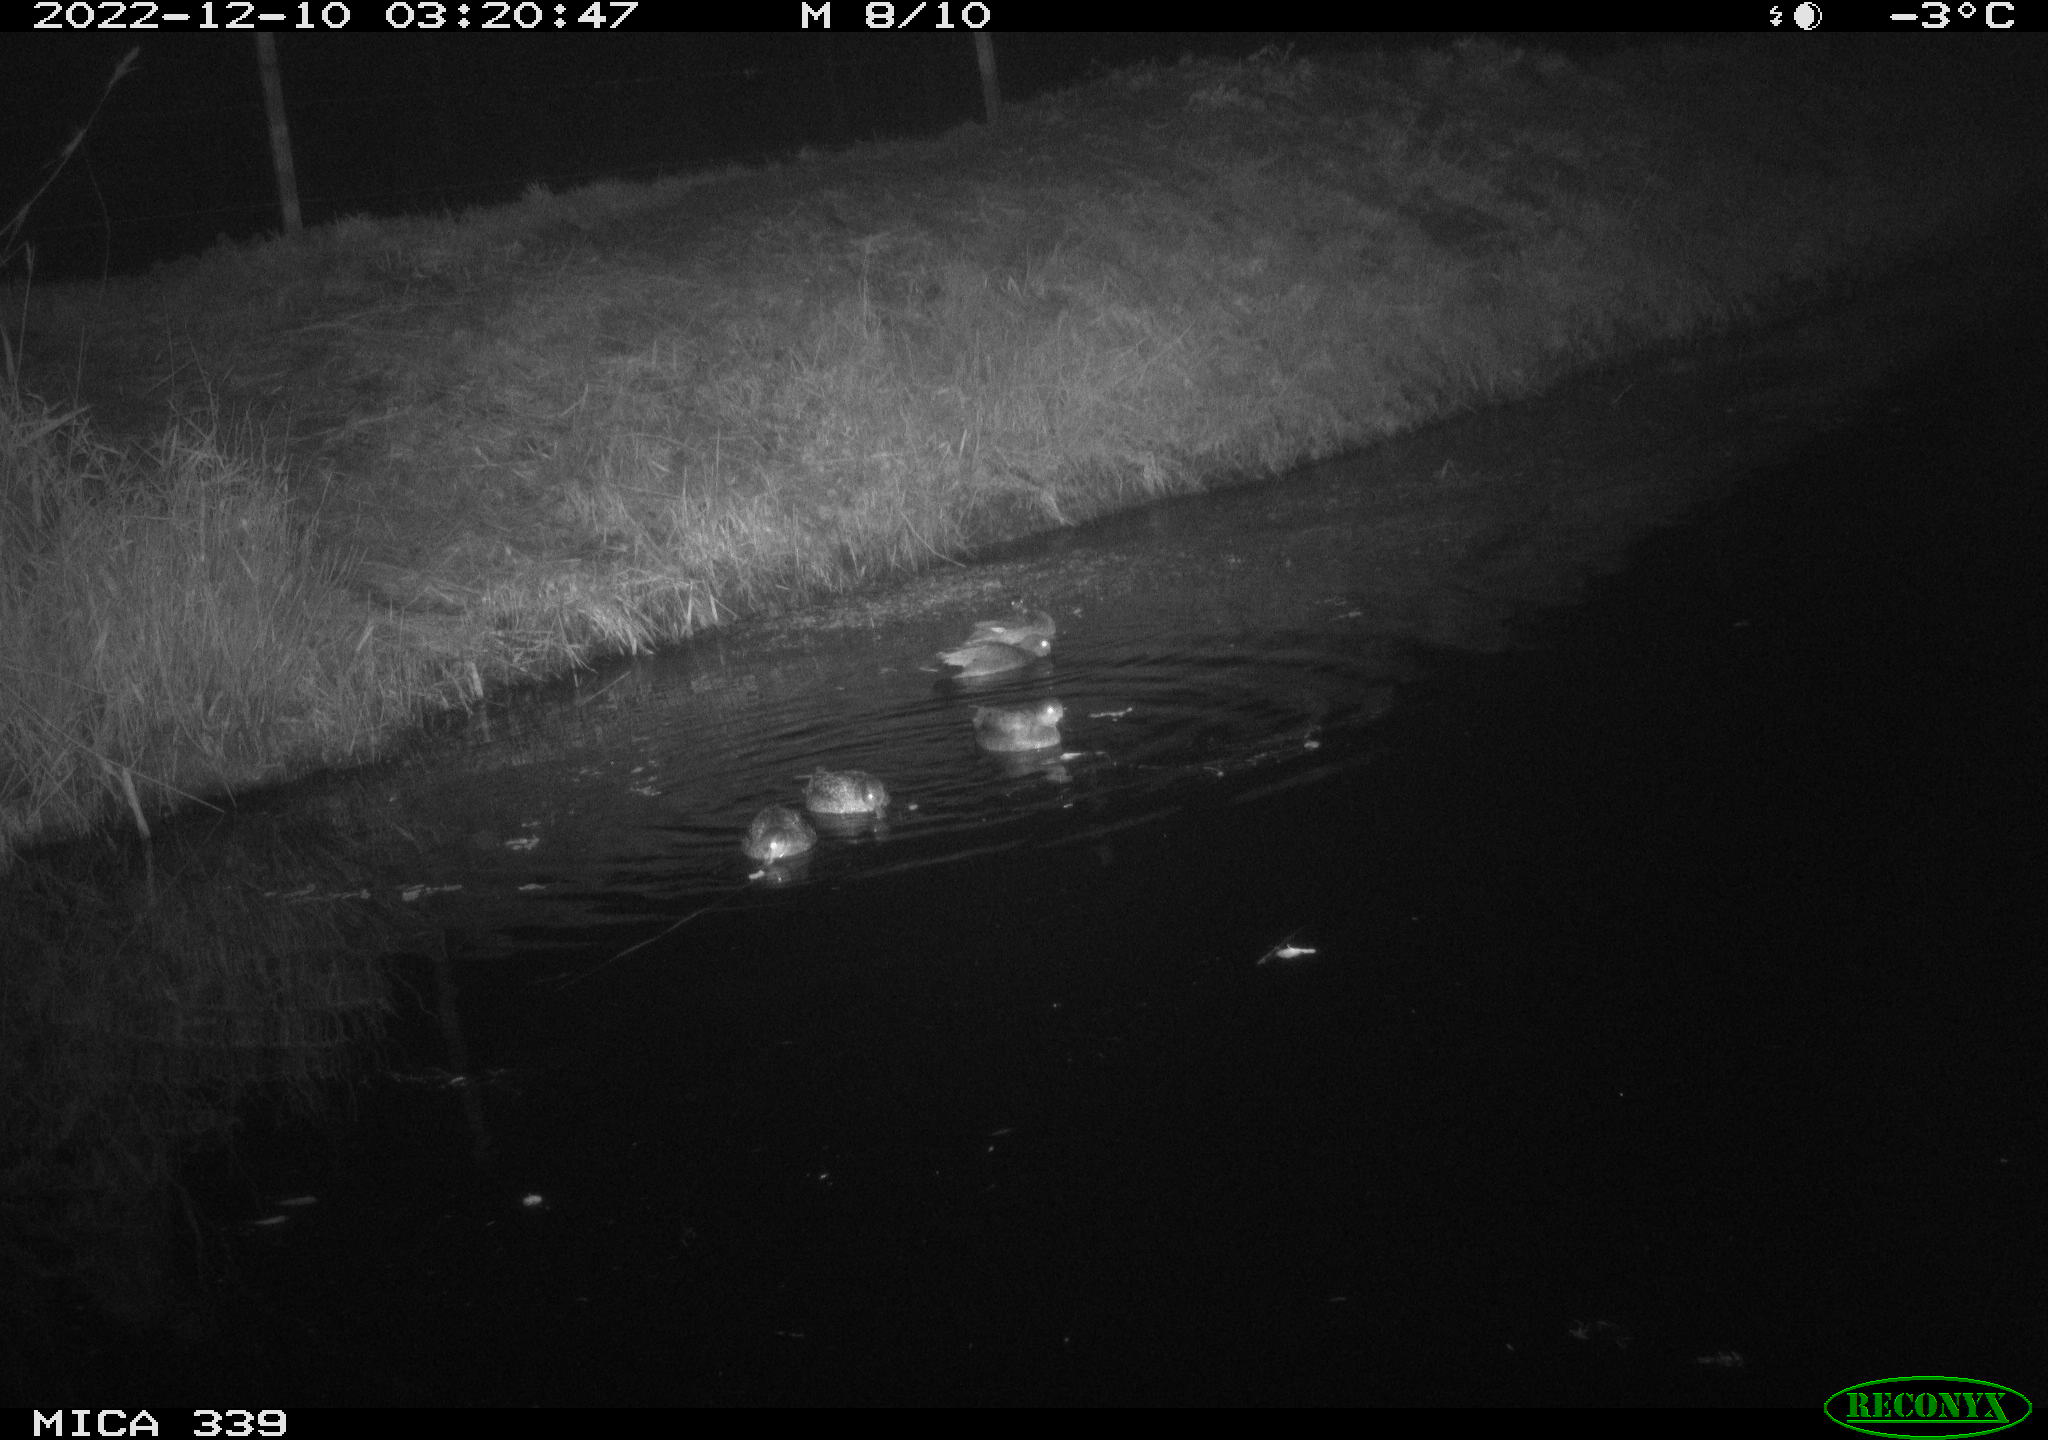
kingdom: Animalia
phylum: Chordata
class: Aves
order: Anseriformes
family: Anatidae
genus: Anas
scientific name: Anas
